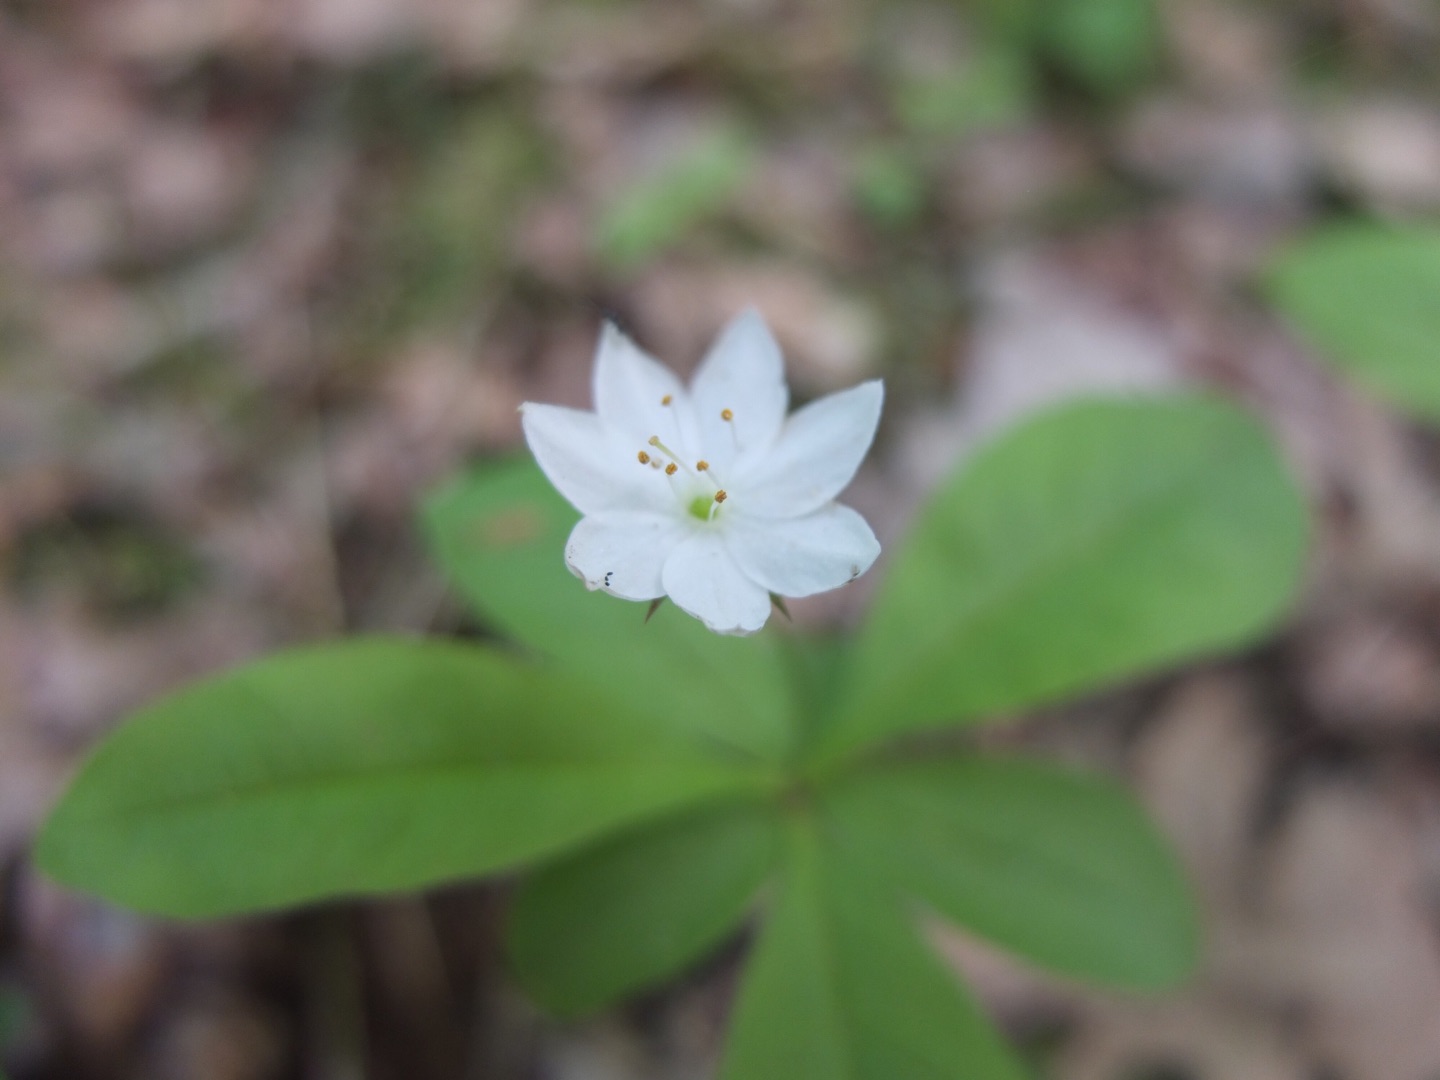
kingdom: Plantae
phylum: Tracheophyta
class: Magnoliopsida
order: Ericales
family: Primulaceae
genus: Lysimachia
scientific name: Lysimachia europaea
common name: Skovstjerne
